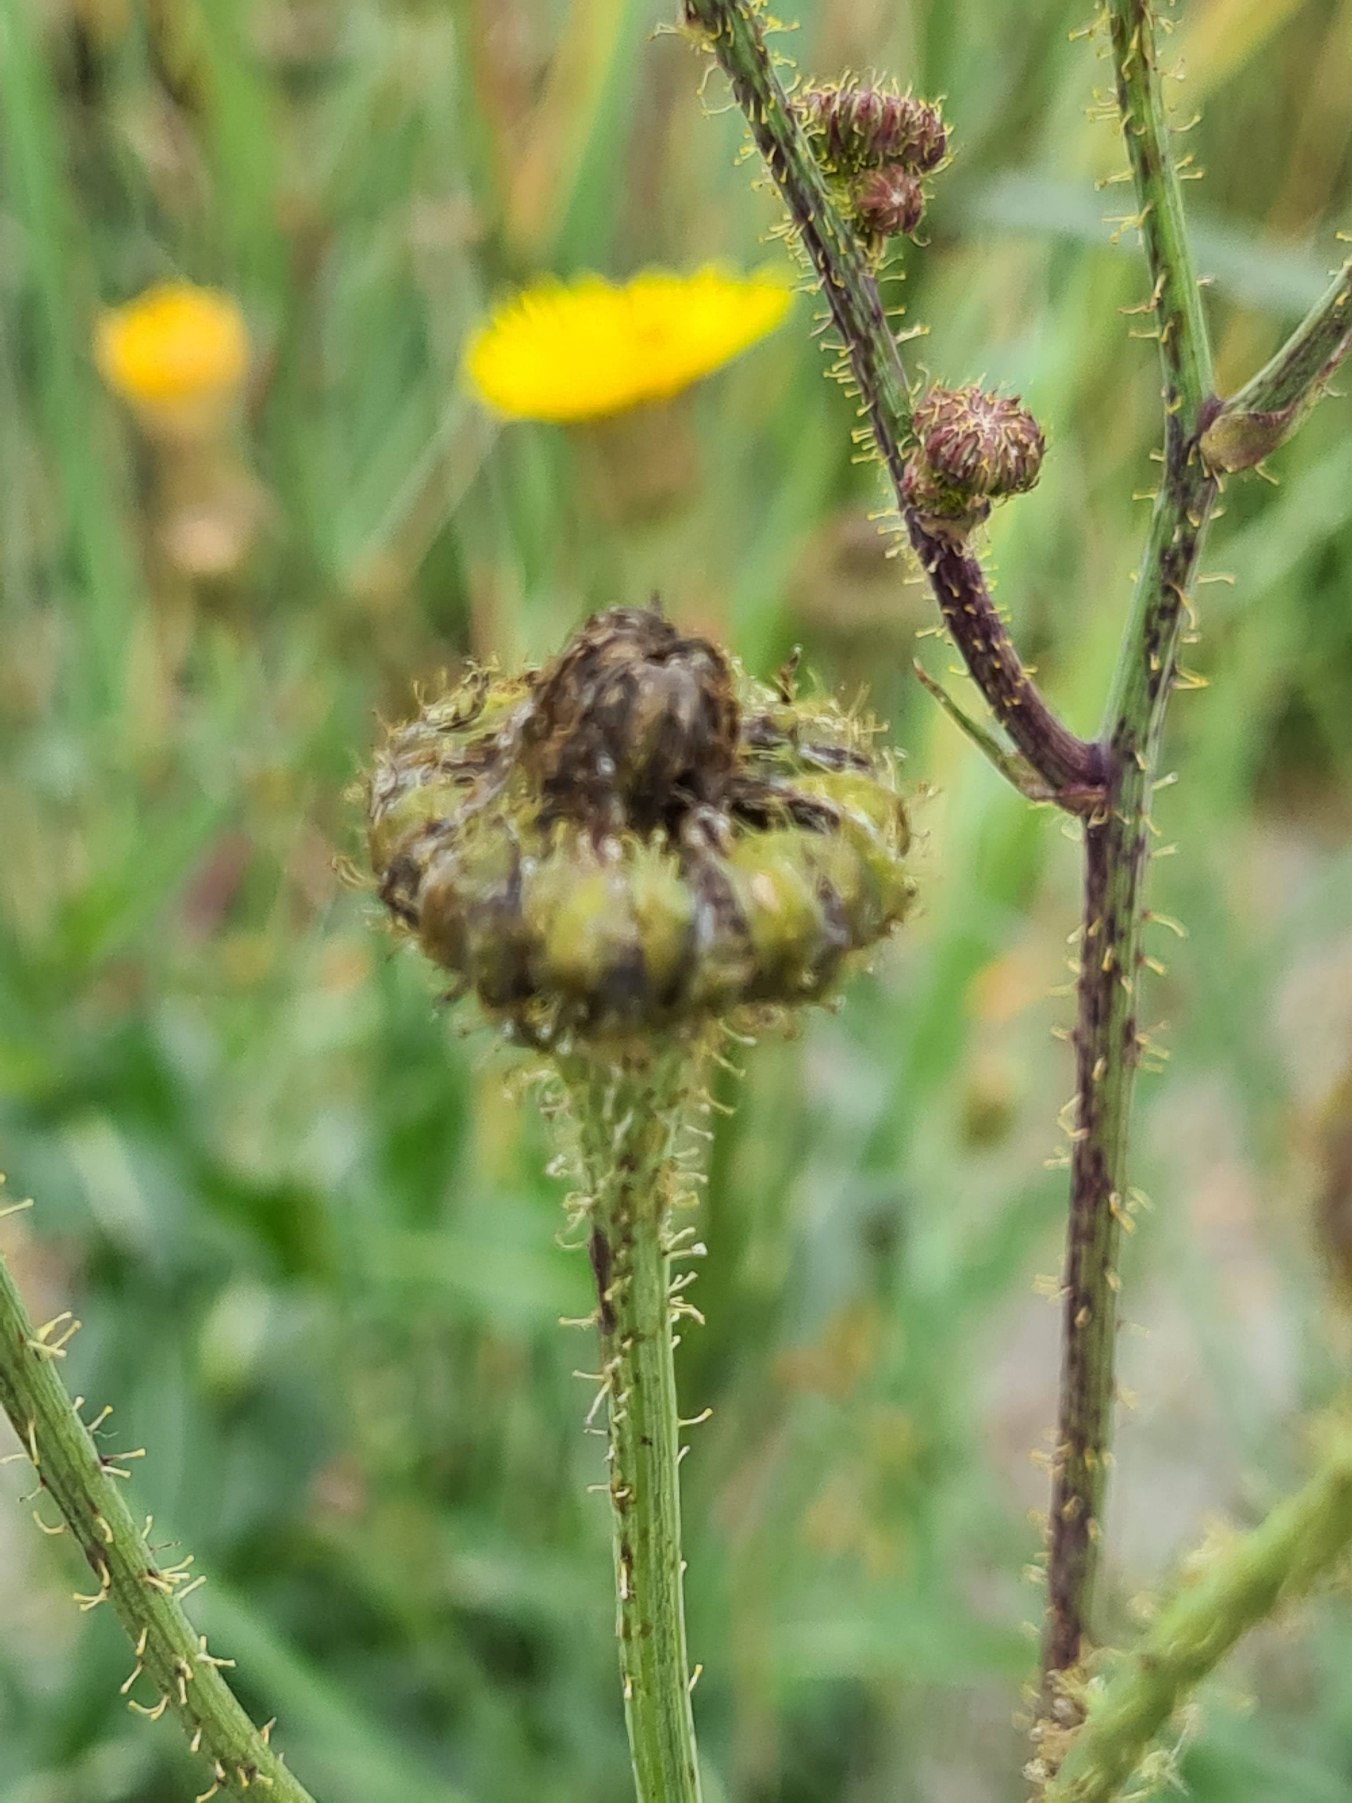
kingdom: Plantae
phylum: Tracheophyta
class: Magnoliopsida
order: Asterales
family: Asteraceae
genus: Sonchus
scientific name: Sonchus arvensis
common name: Ager-svinemælk
